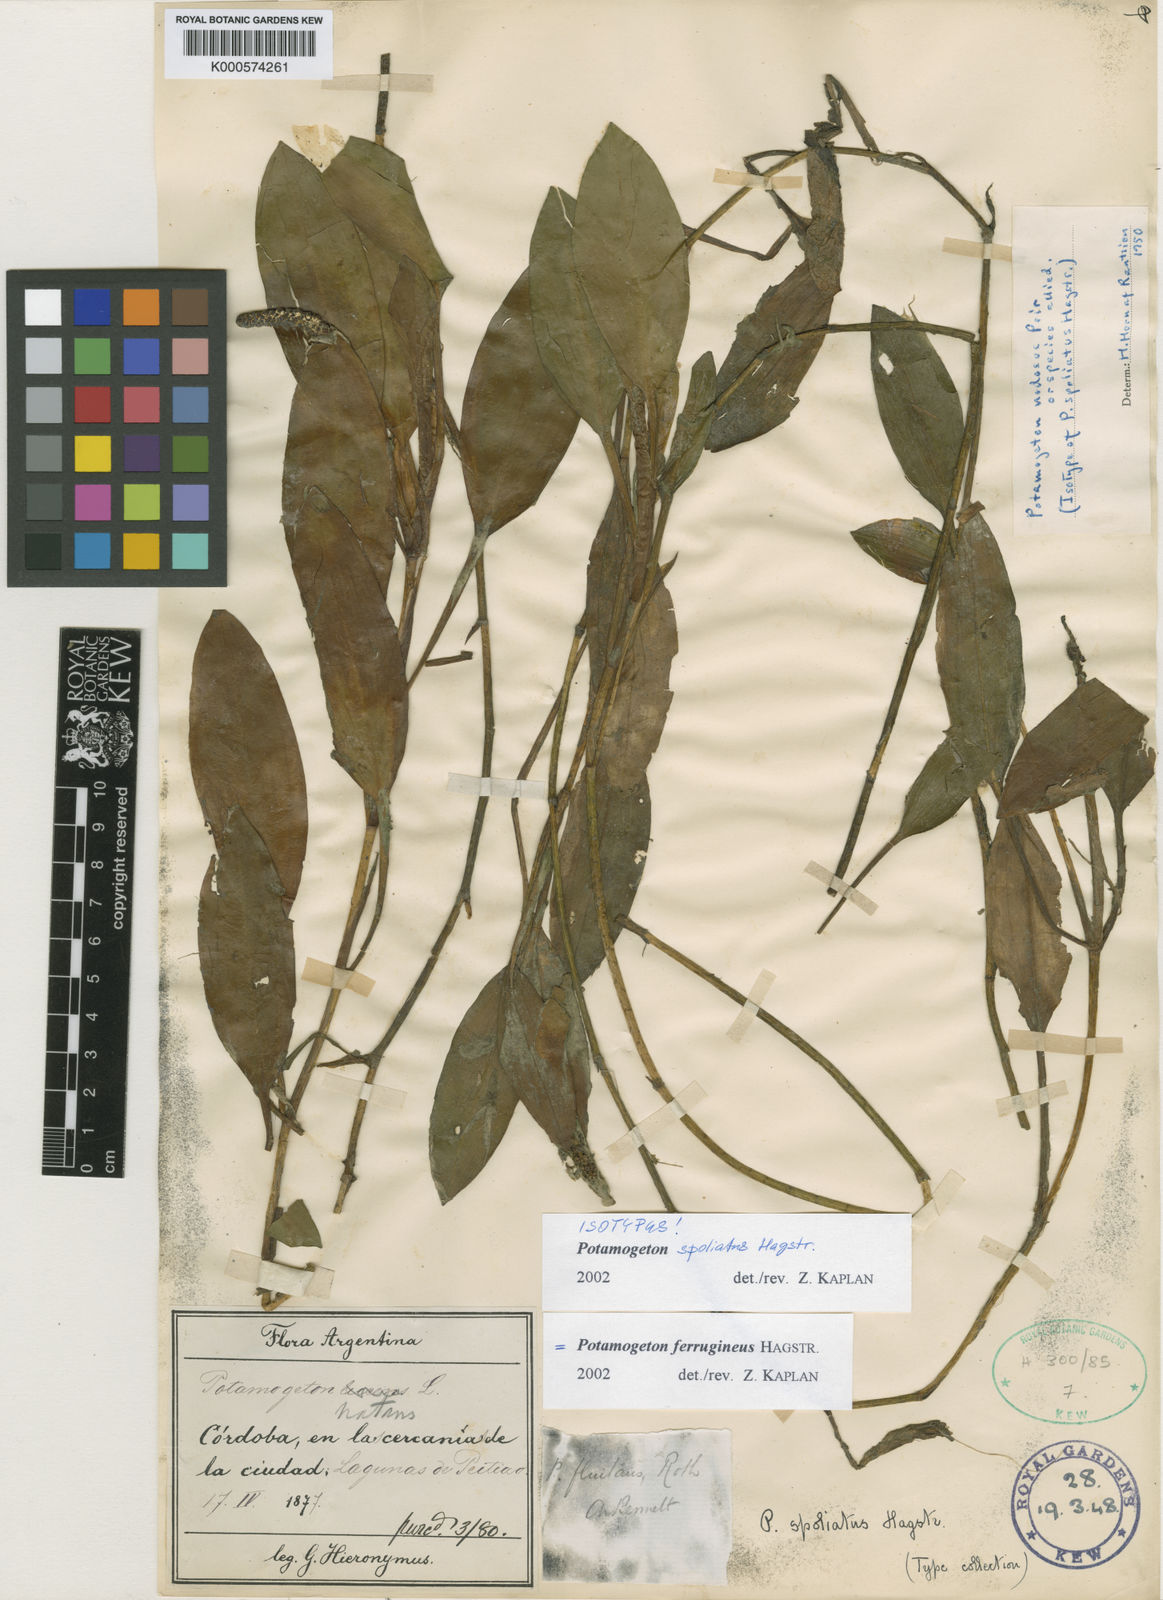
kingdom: Plantae
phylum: Tracheophyta
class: Liliopsida
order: Alismatales
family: Potamogetonaceae
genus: Potamogeton
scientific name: Potamogeton ferrugineus
